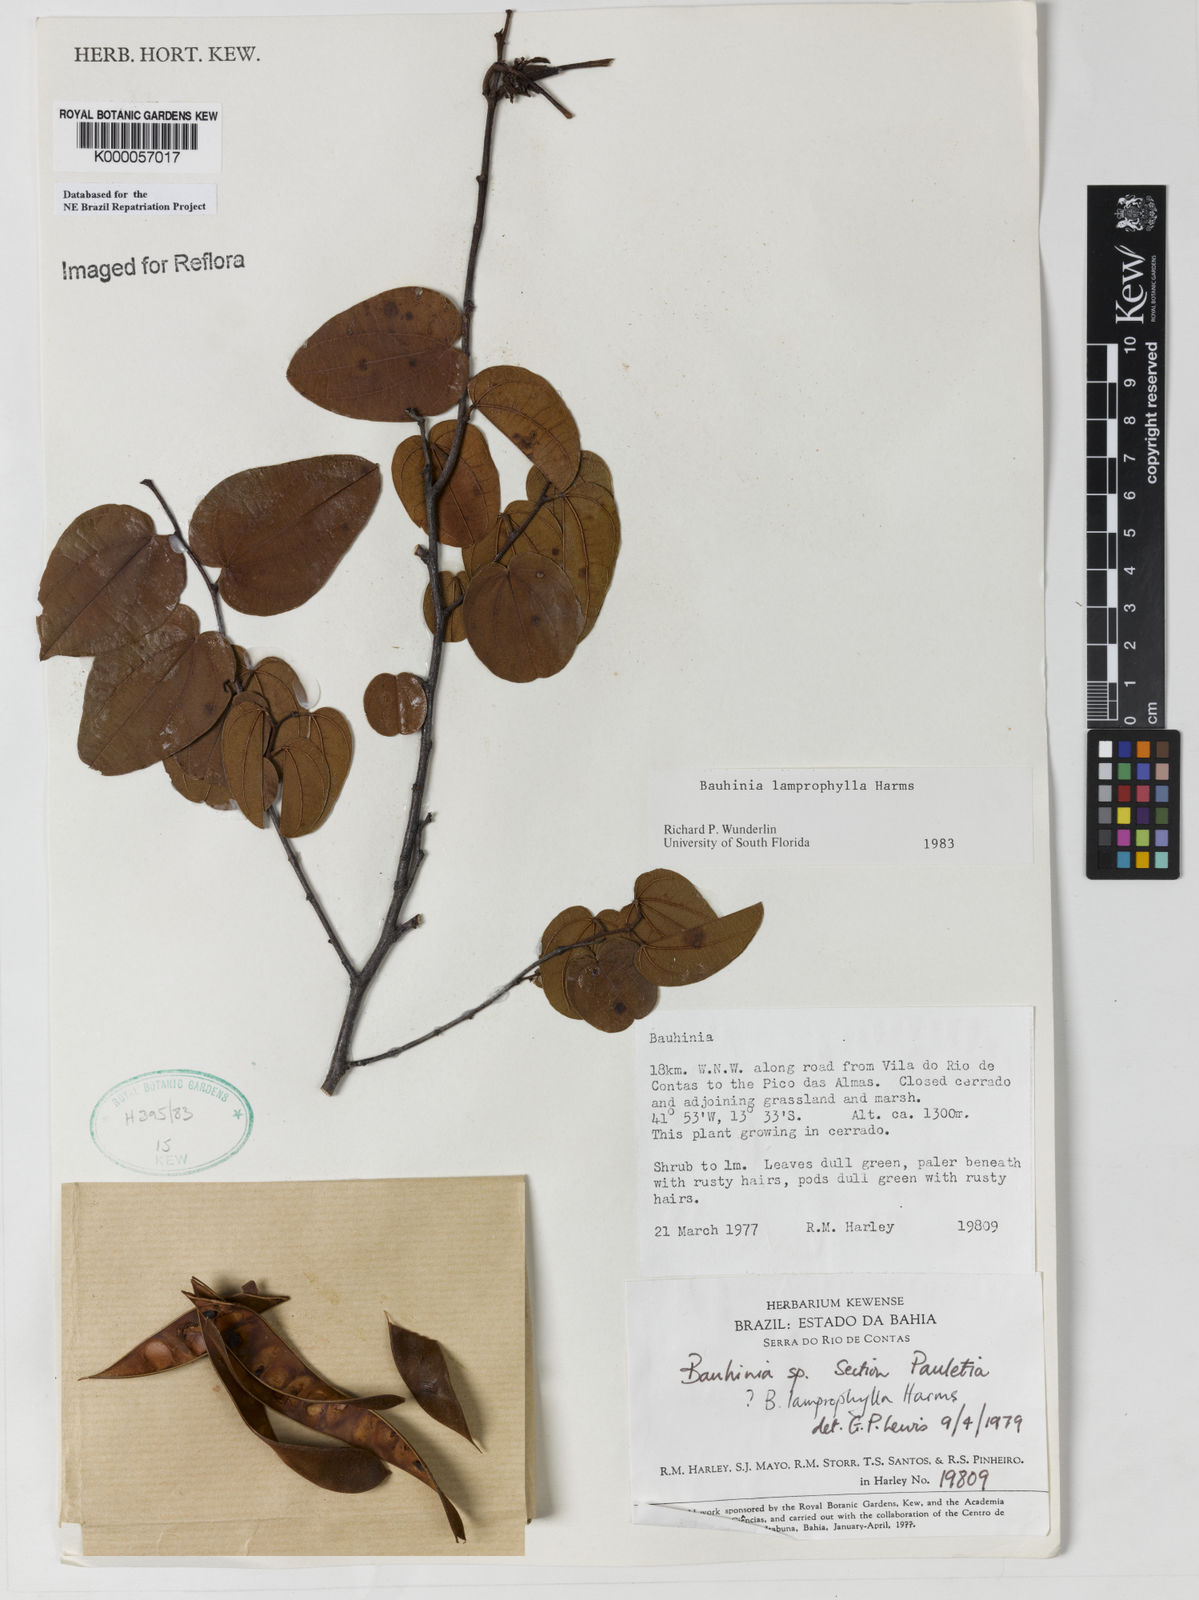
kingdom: Plantae
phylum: Tracheophyta
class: Magnoliopsida
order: Fabales
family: Fabaceae
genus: Bauhinia
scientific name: Bauhinia acuruana
